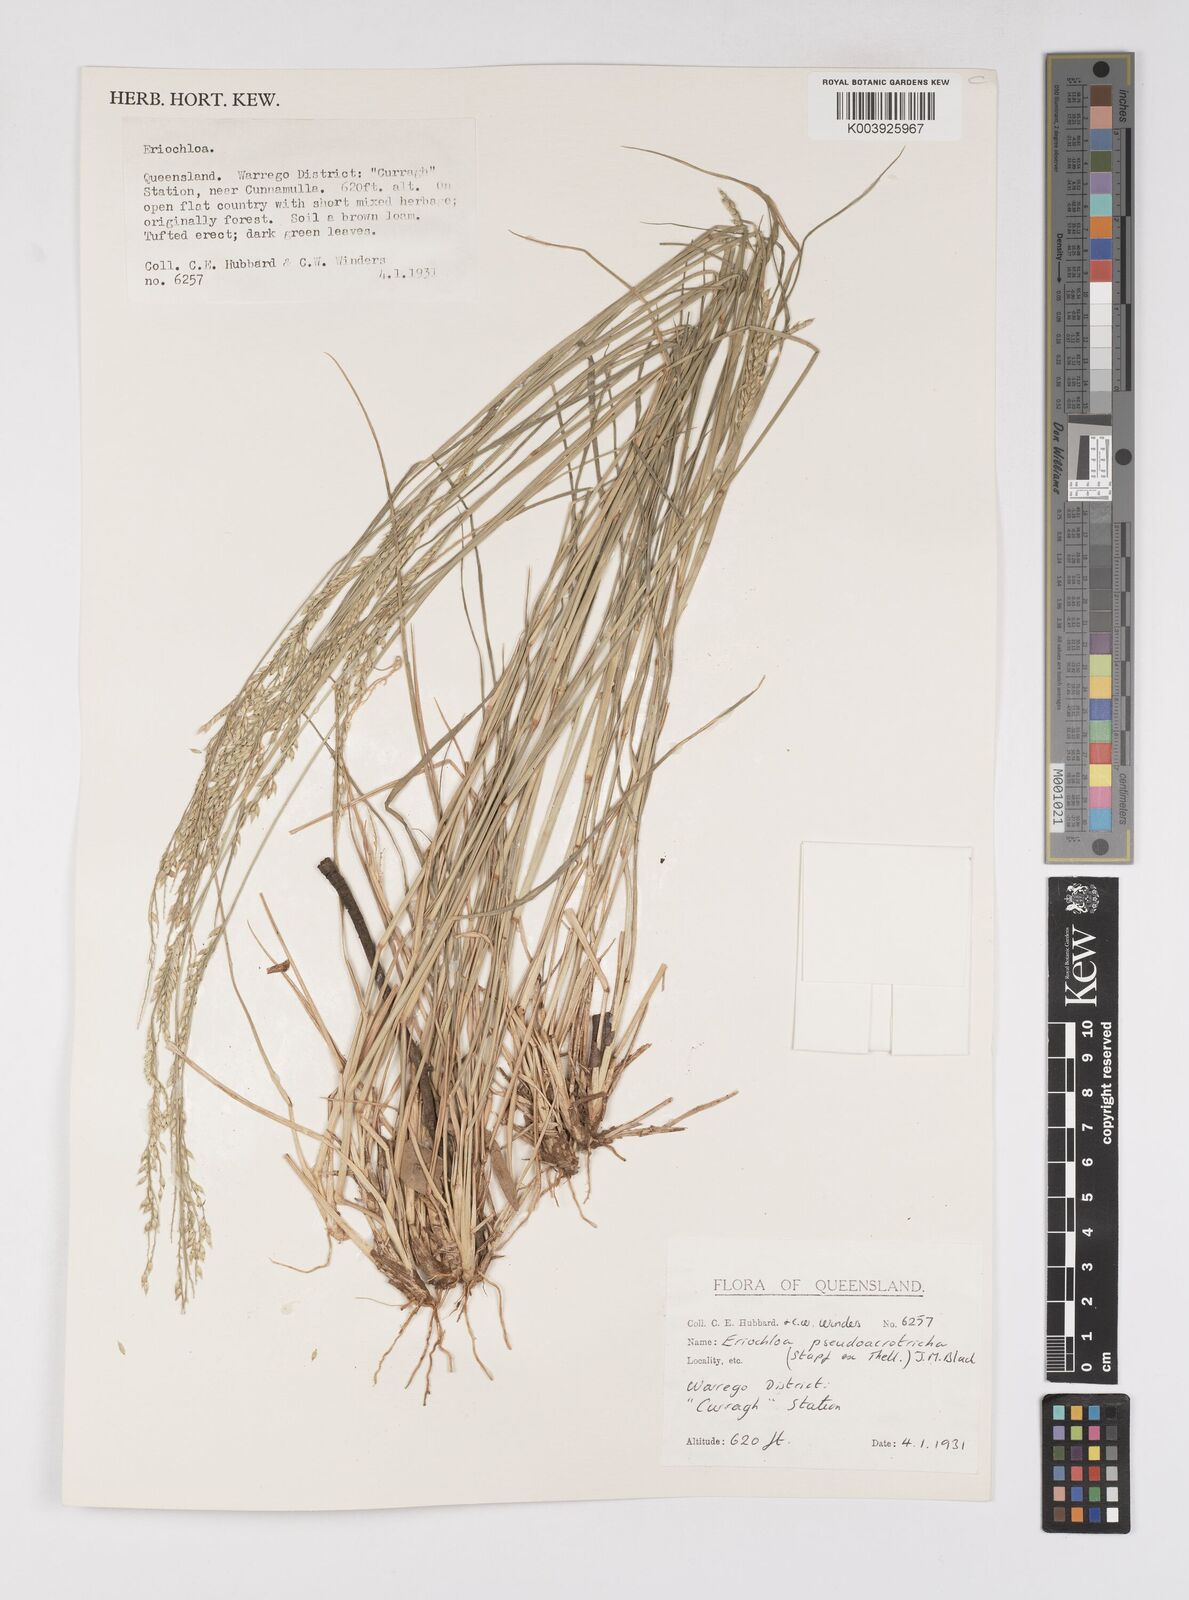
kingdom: Plantae
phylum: Tracheophyta
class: Liliopsida
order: Poales
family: Poaceae
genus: Eriochloa
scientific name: Eriochloa pseudoacrotricha
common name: Perennial cup-grass
